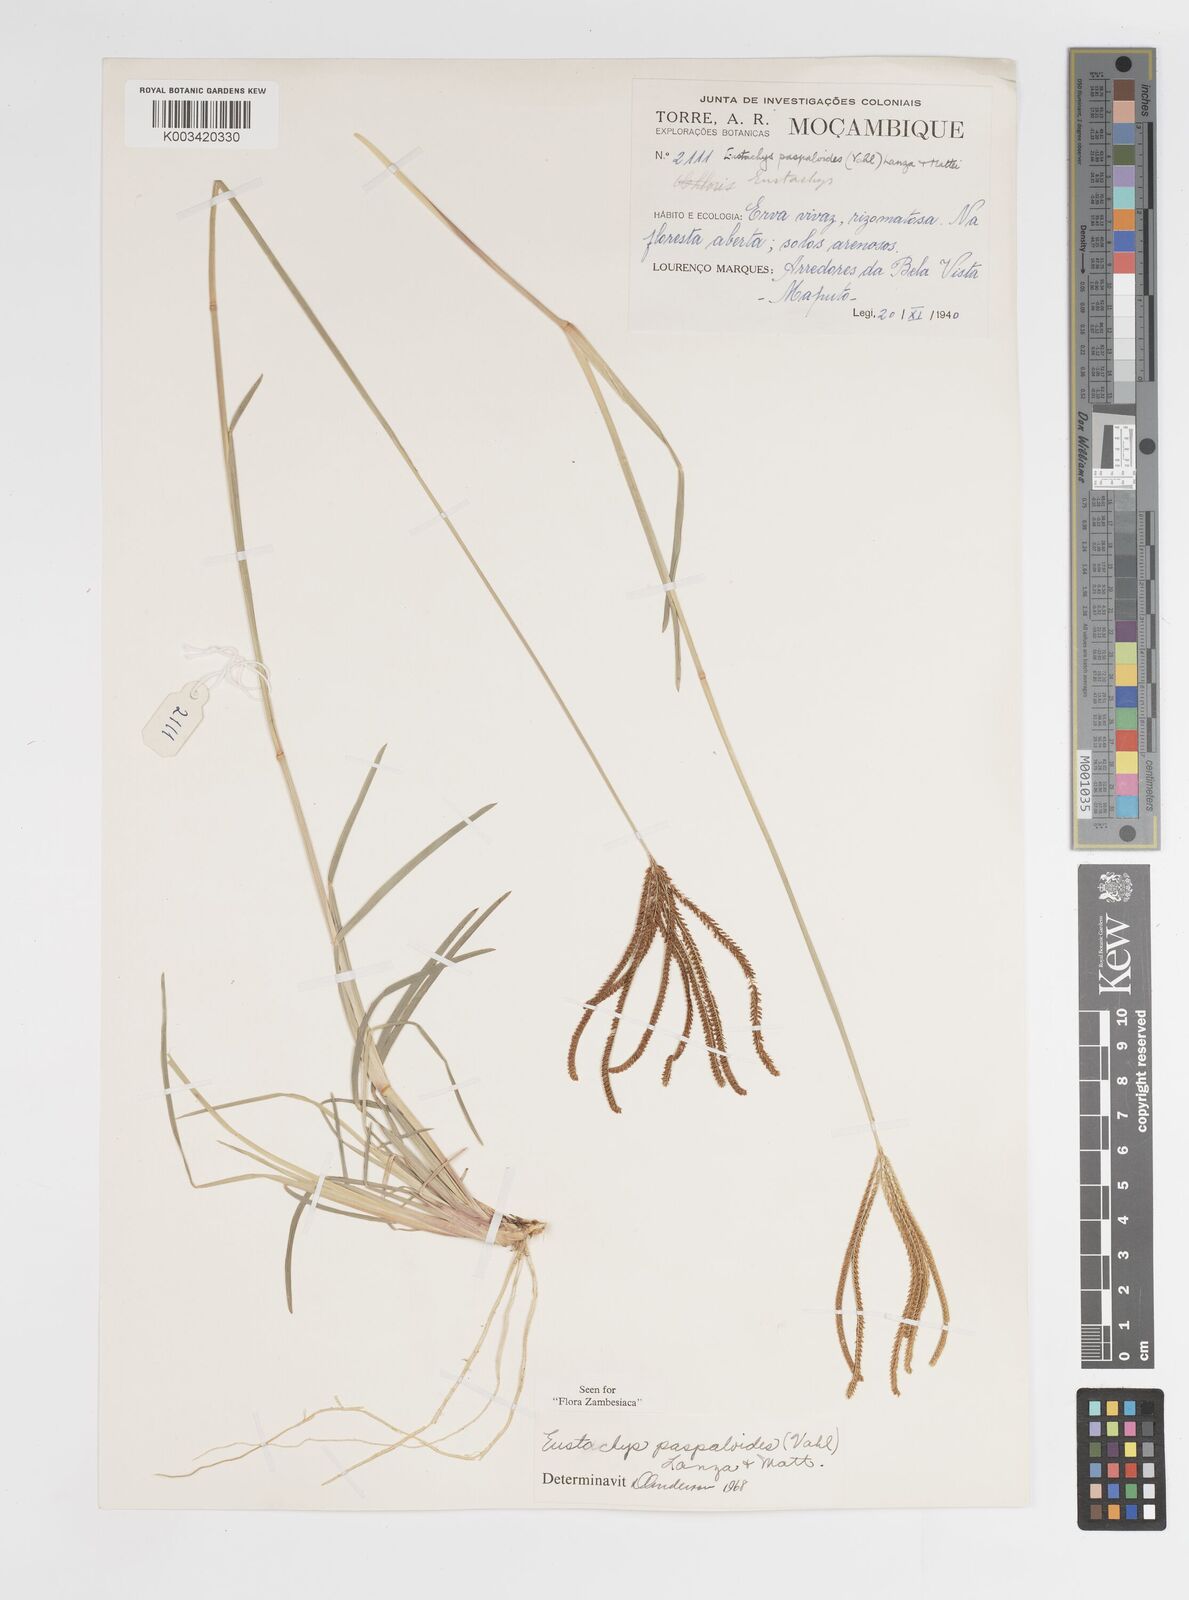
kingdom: Plantae
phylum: Tracheophyta
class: Liliopsida
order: Poales
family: Poaceae
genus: Eustachys
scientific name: Eustachys paspaloides
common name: Caribbean fingergrass
